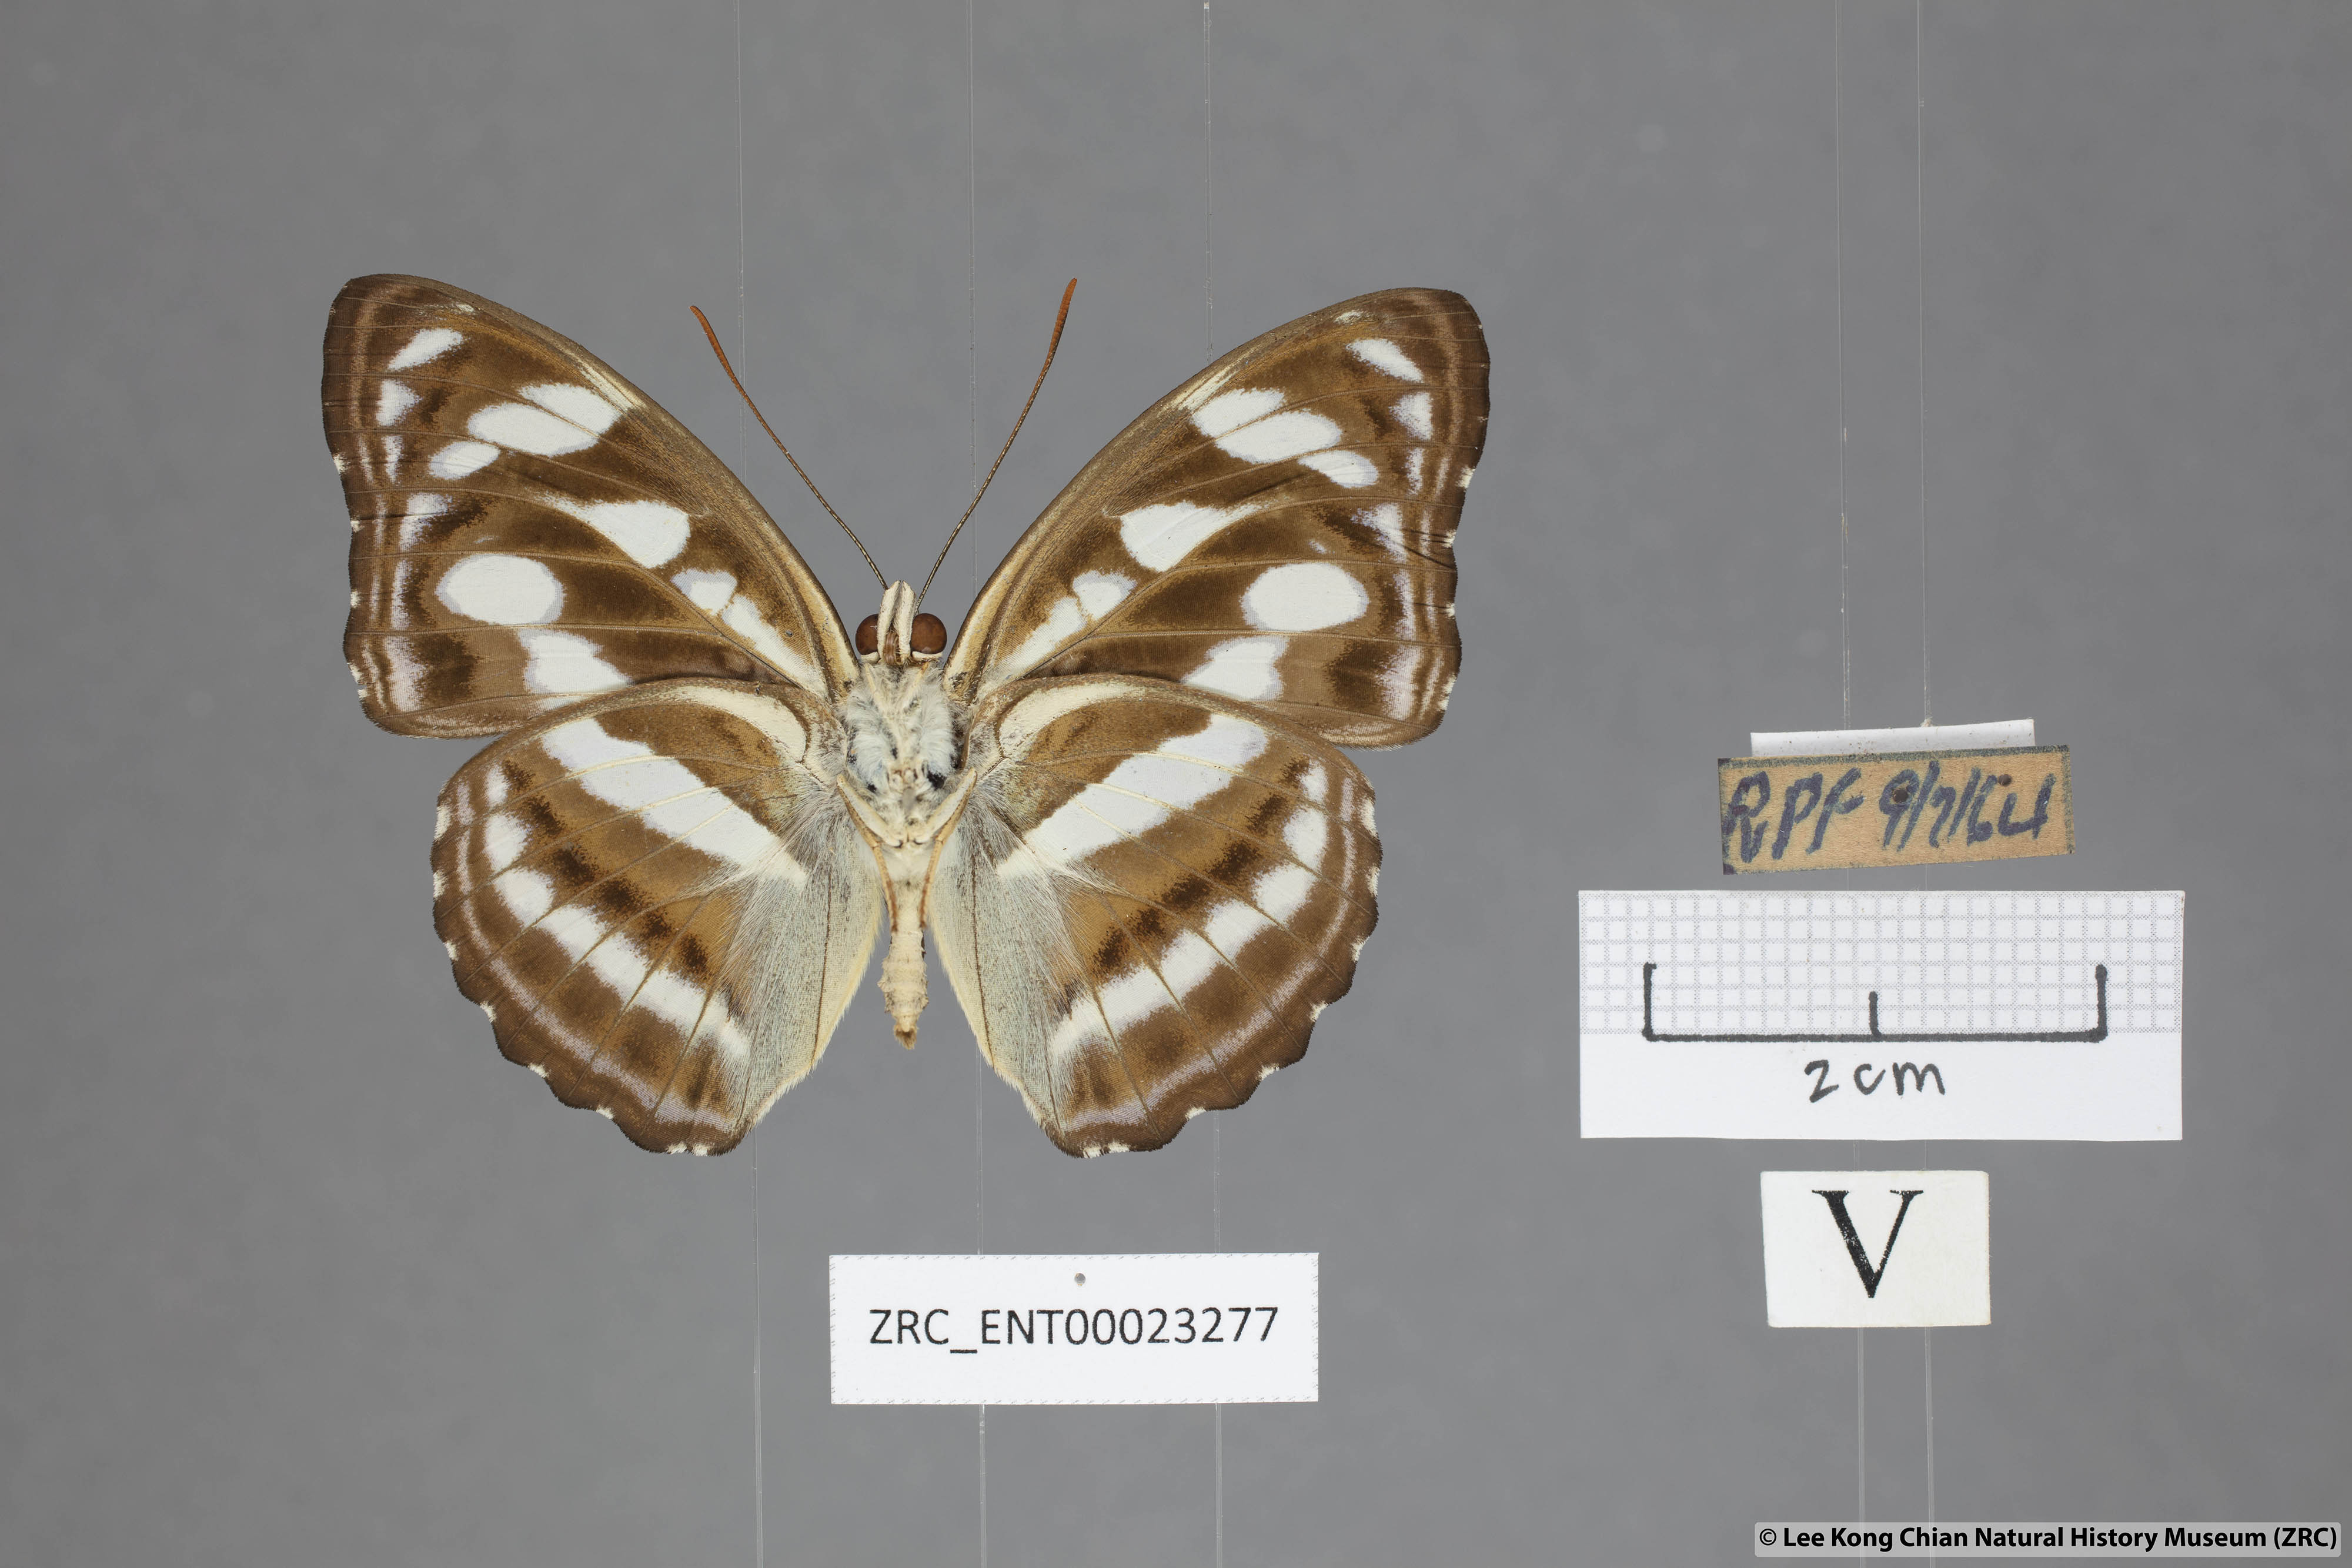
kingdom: Animalia
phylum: Arthropoda
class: Insecta
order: Lepidoptera
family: Nymphalidae
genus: Parathyma
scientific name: Parathyma reta
